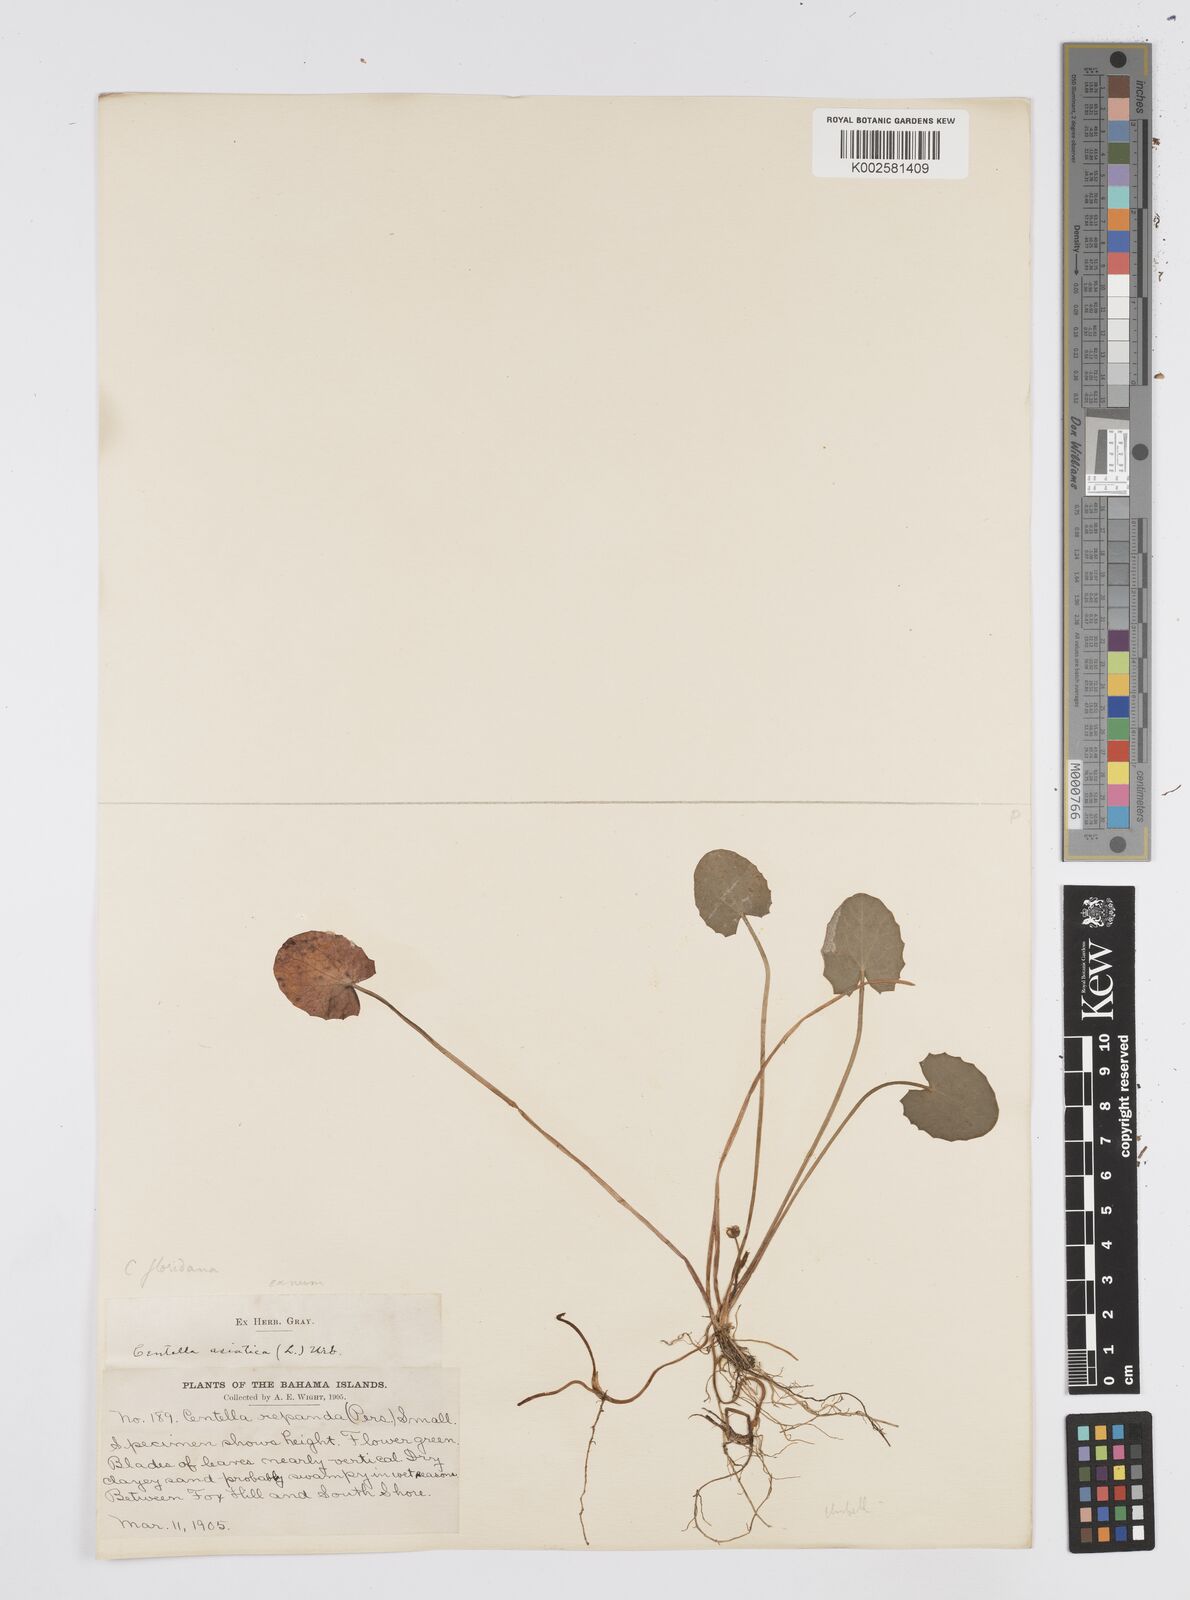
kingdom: Plantae
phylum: Tracheophyta
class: Magnoliopsida
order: Apiales
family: Apiaceae
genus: Centella
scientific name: Centella asiatica
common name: Spadeleaf
